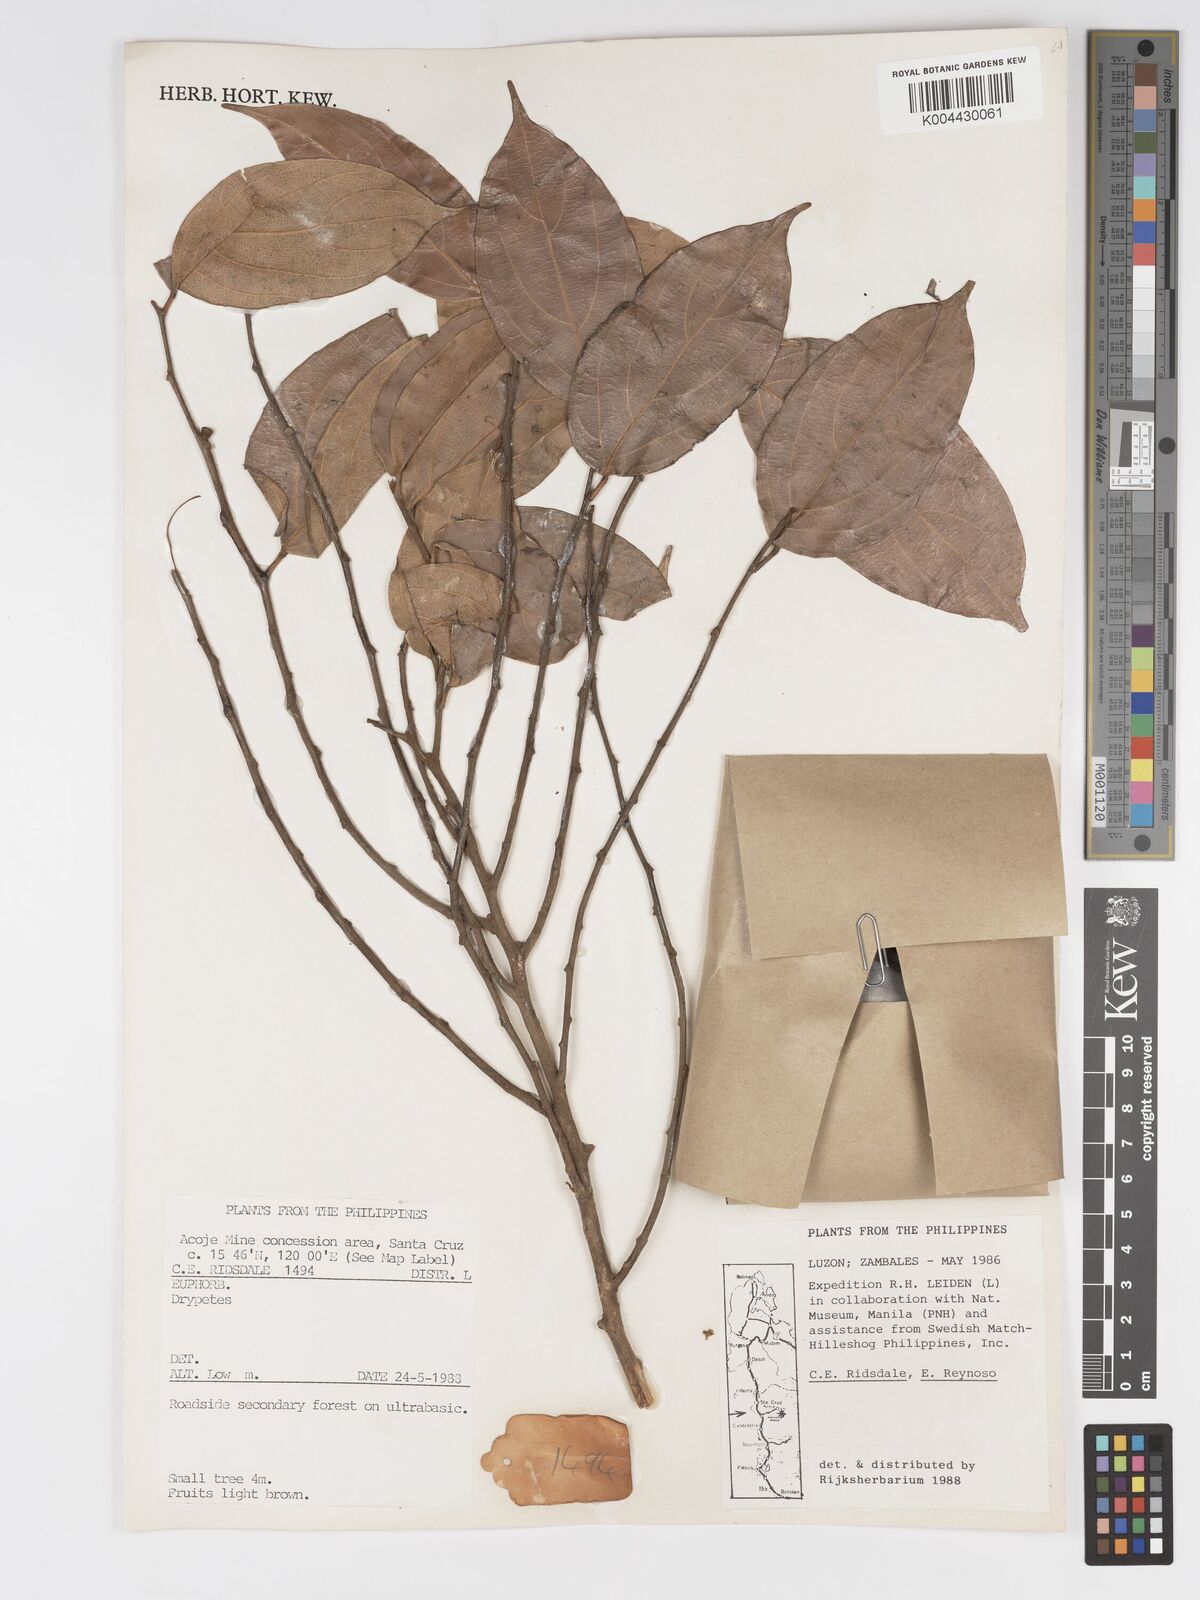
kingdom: Plantae
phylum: Tracheophyta
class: Magnoliopsida
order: Malpighiales
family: Putranjivaceae
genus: Drypetes
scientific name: Drypetes
